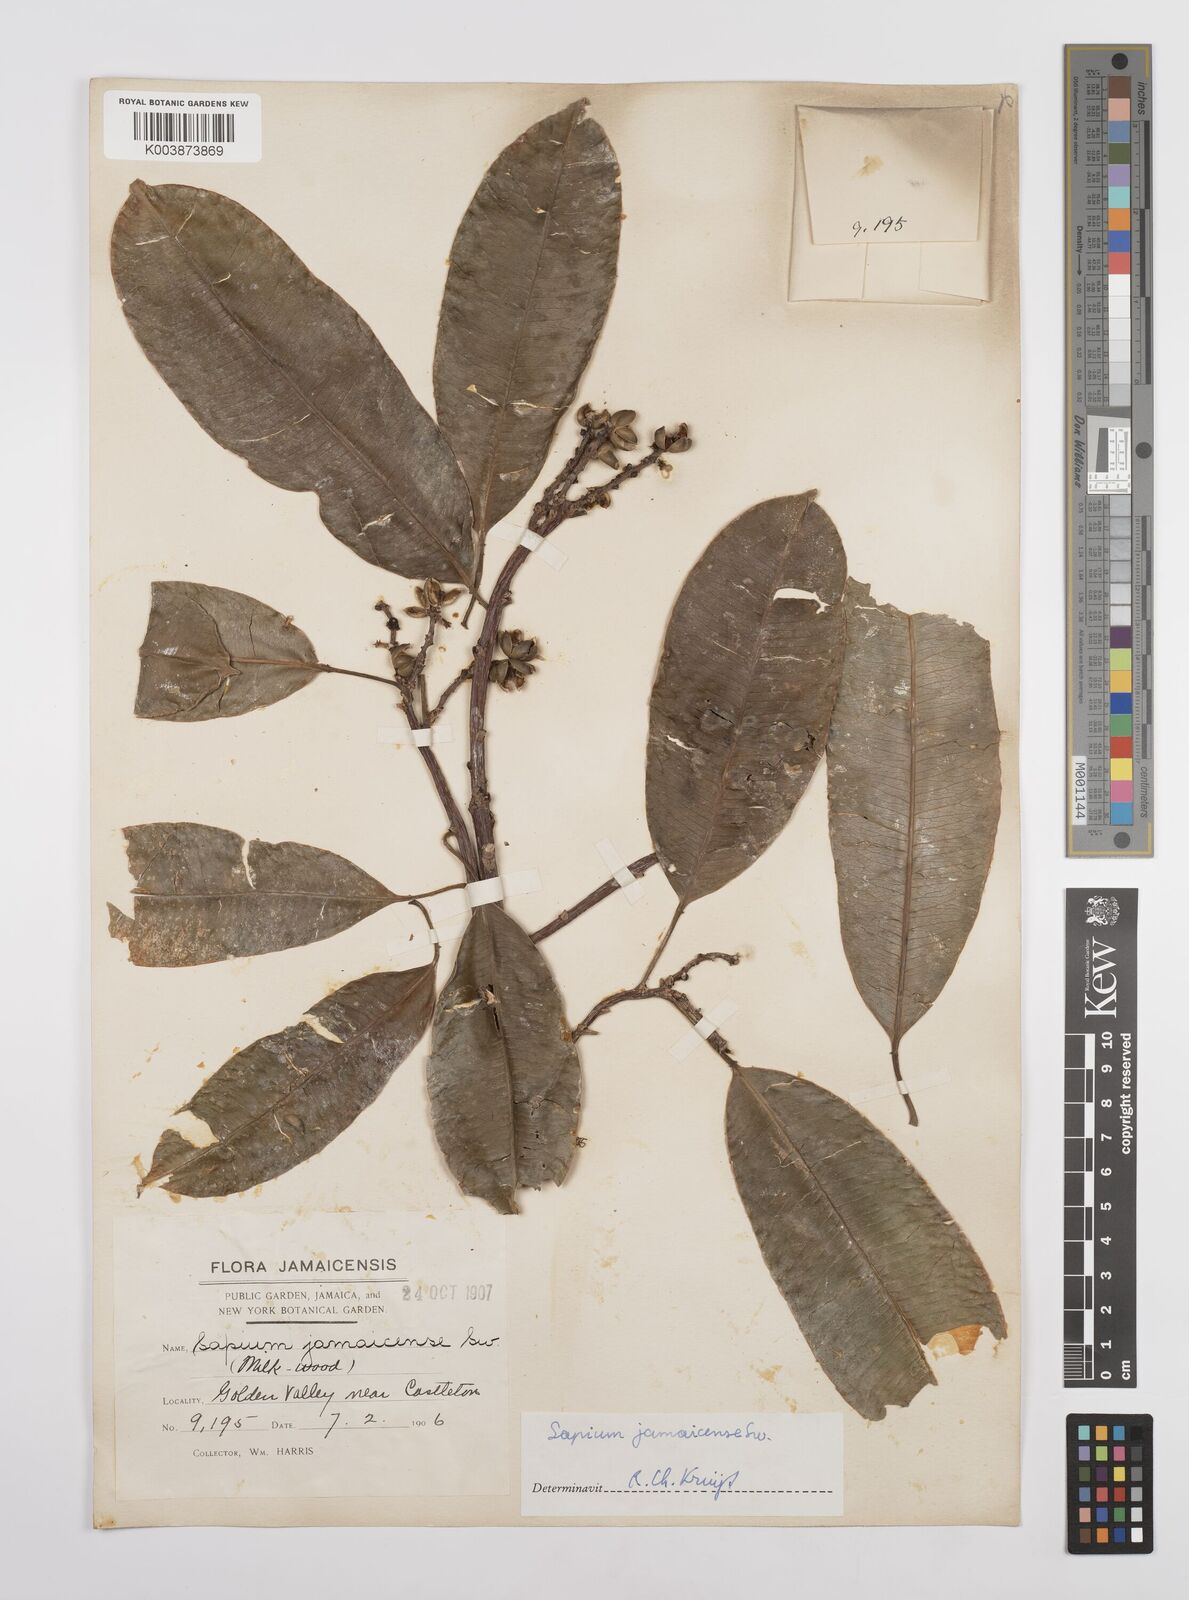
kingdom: Plantae
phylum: Tracheophyta
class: Magnoliopsida
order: Malpighiales
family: Euphorbiaceae
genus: Sapium
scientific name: Sapium glandulosum
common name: Milktree
